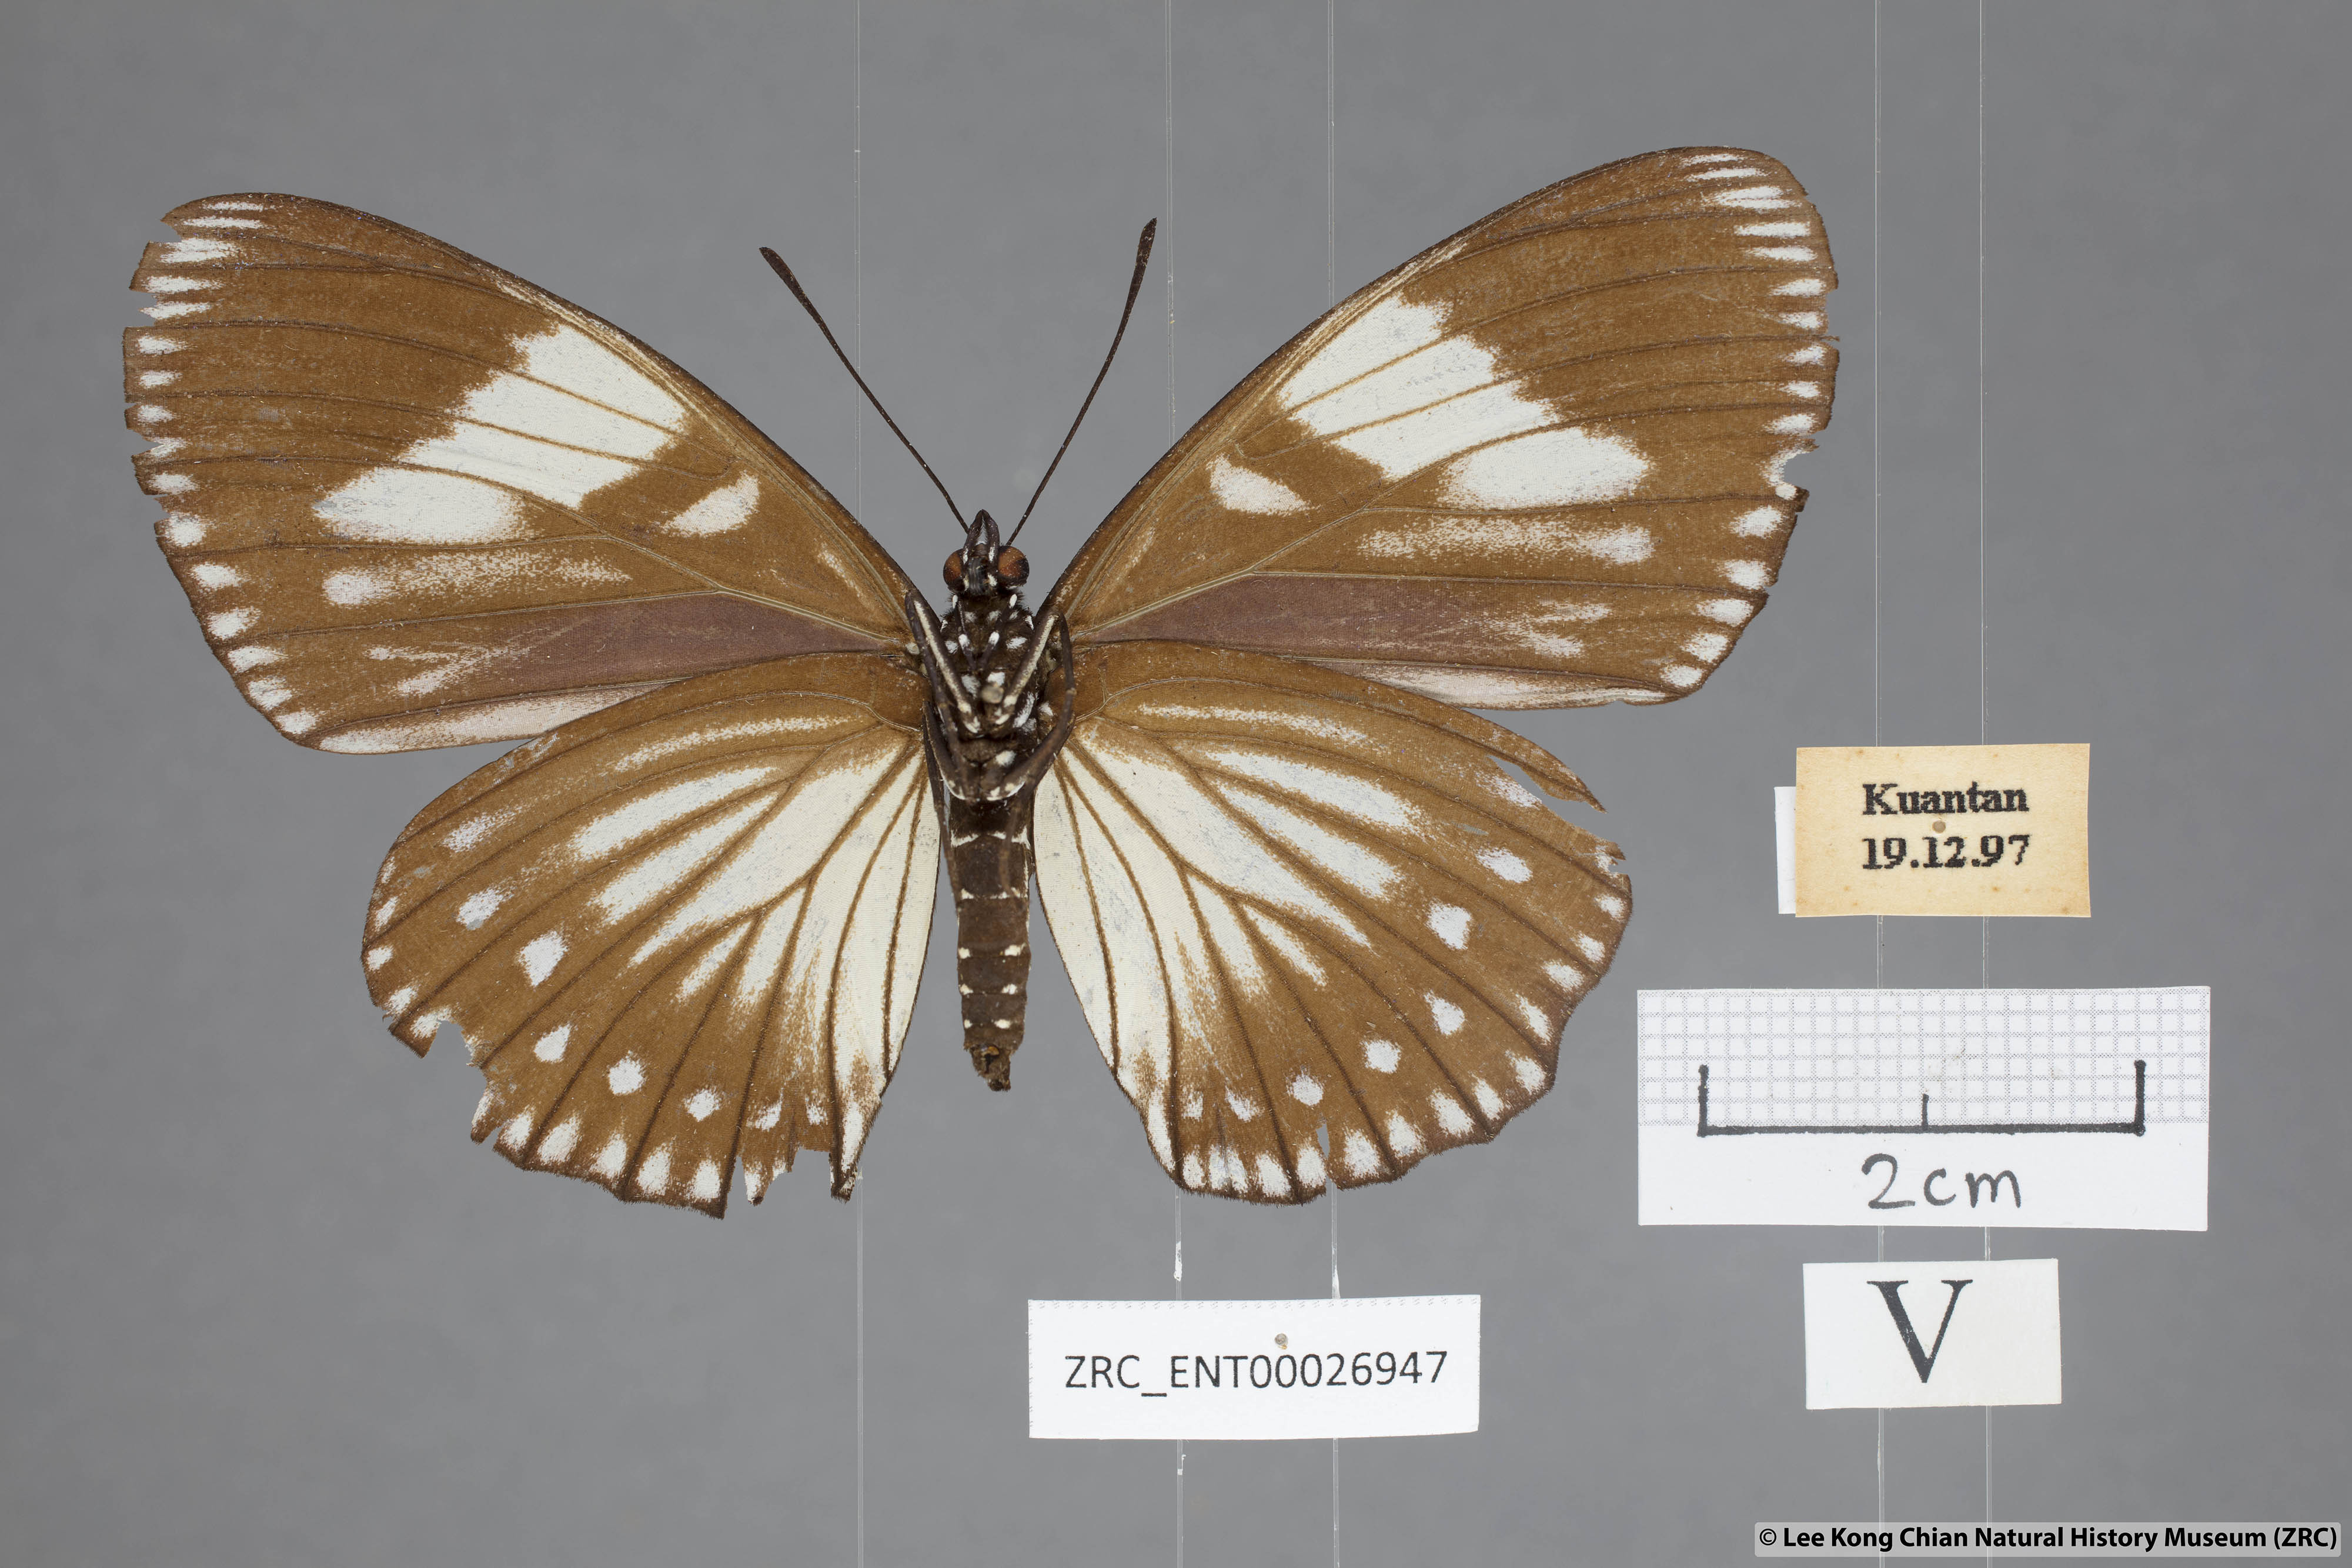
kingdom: Animalia
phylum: Arthropoda
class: Insecta
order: Lepidoptera
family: Nymphalidae
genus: Euripus
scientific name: Euripus nyctelius
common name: Courtesan
